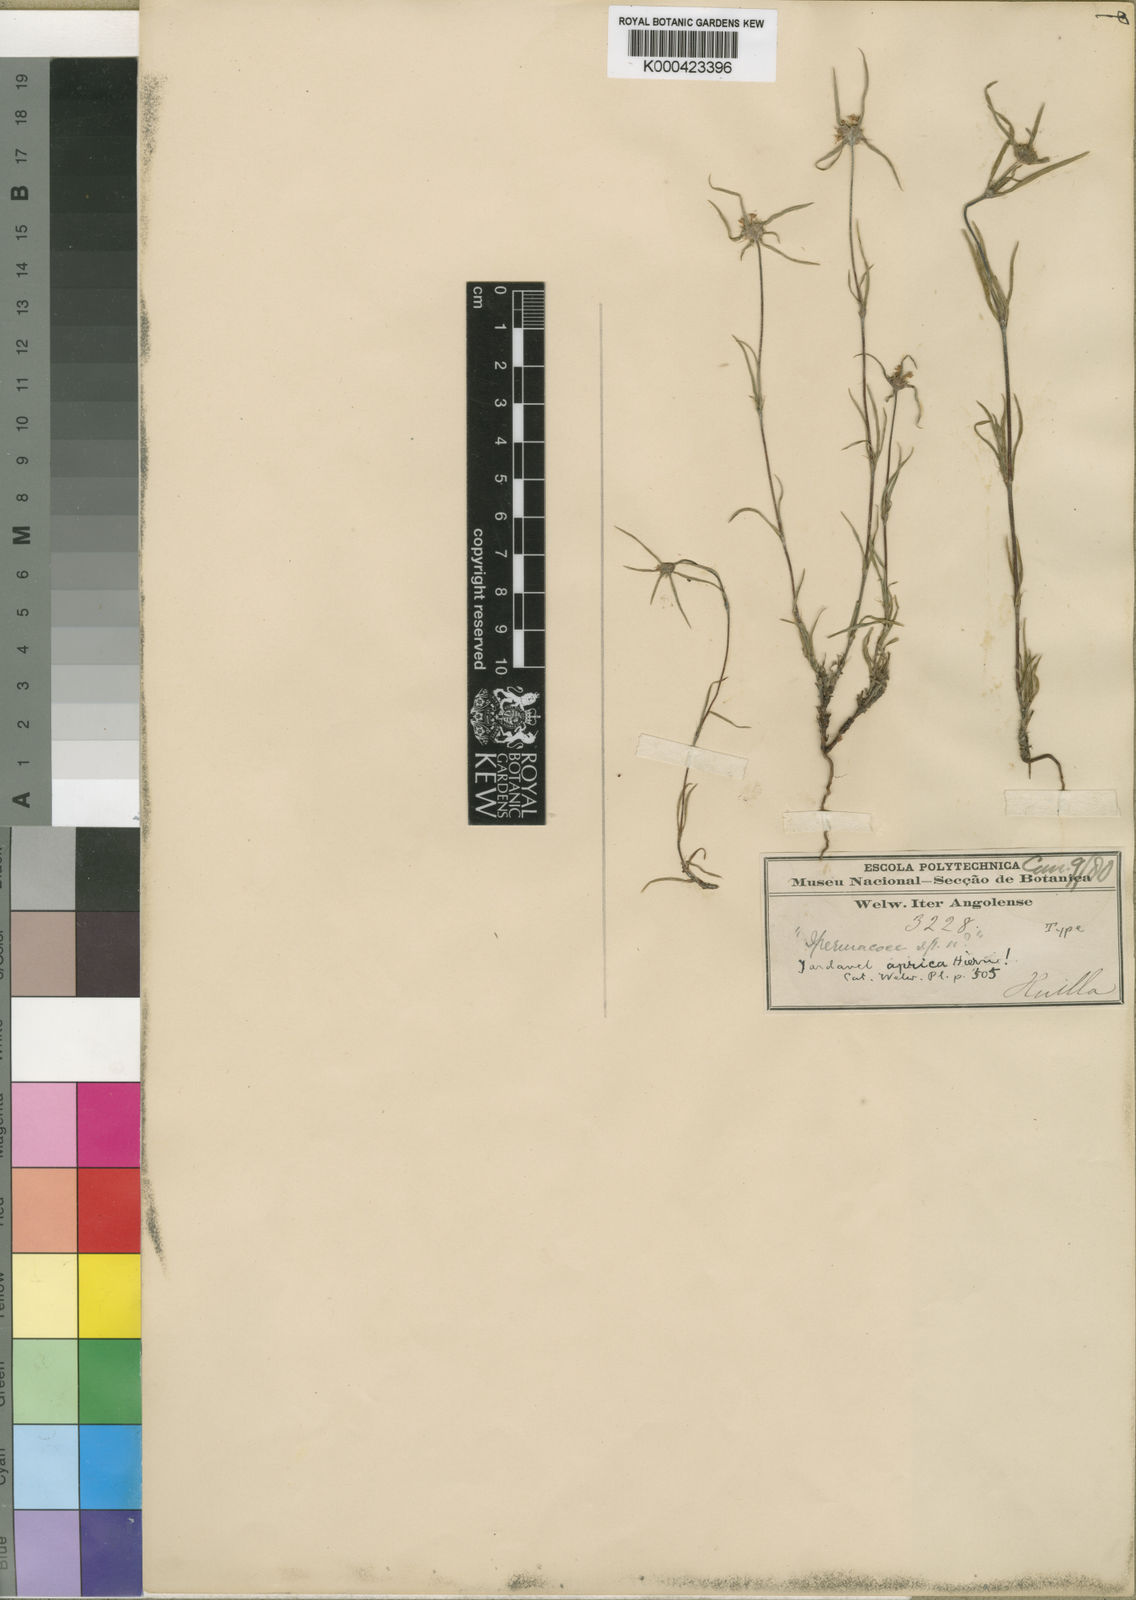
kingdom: Plantae
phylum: Tracheophyta
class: Magnoliopsida
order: Gentianales
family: Rubiaceae
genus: Spermacoce
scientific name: Spermacoce aprica
